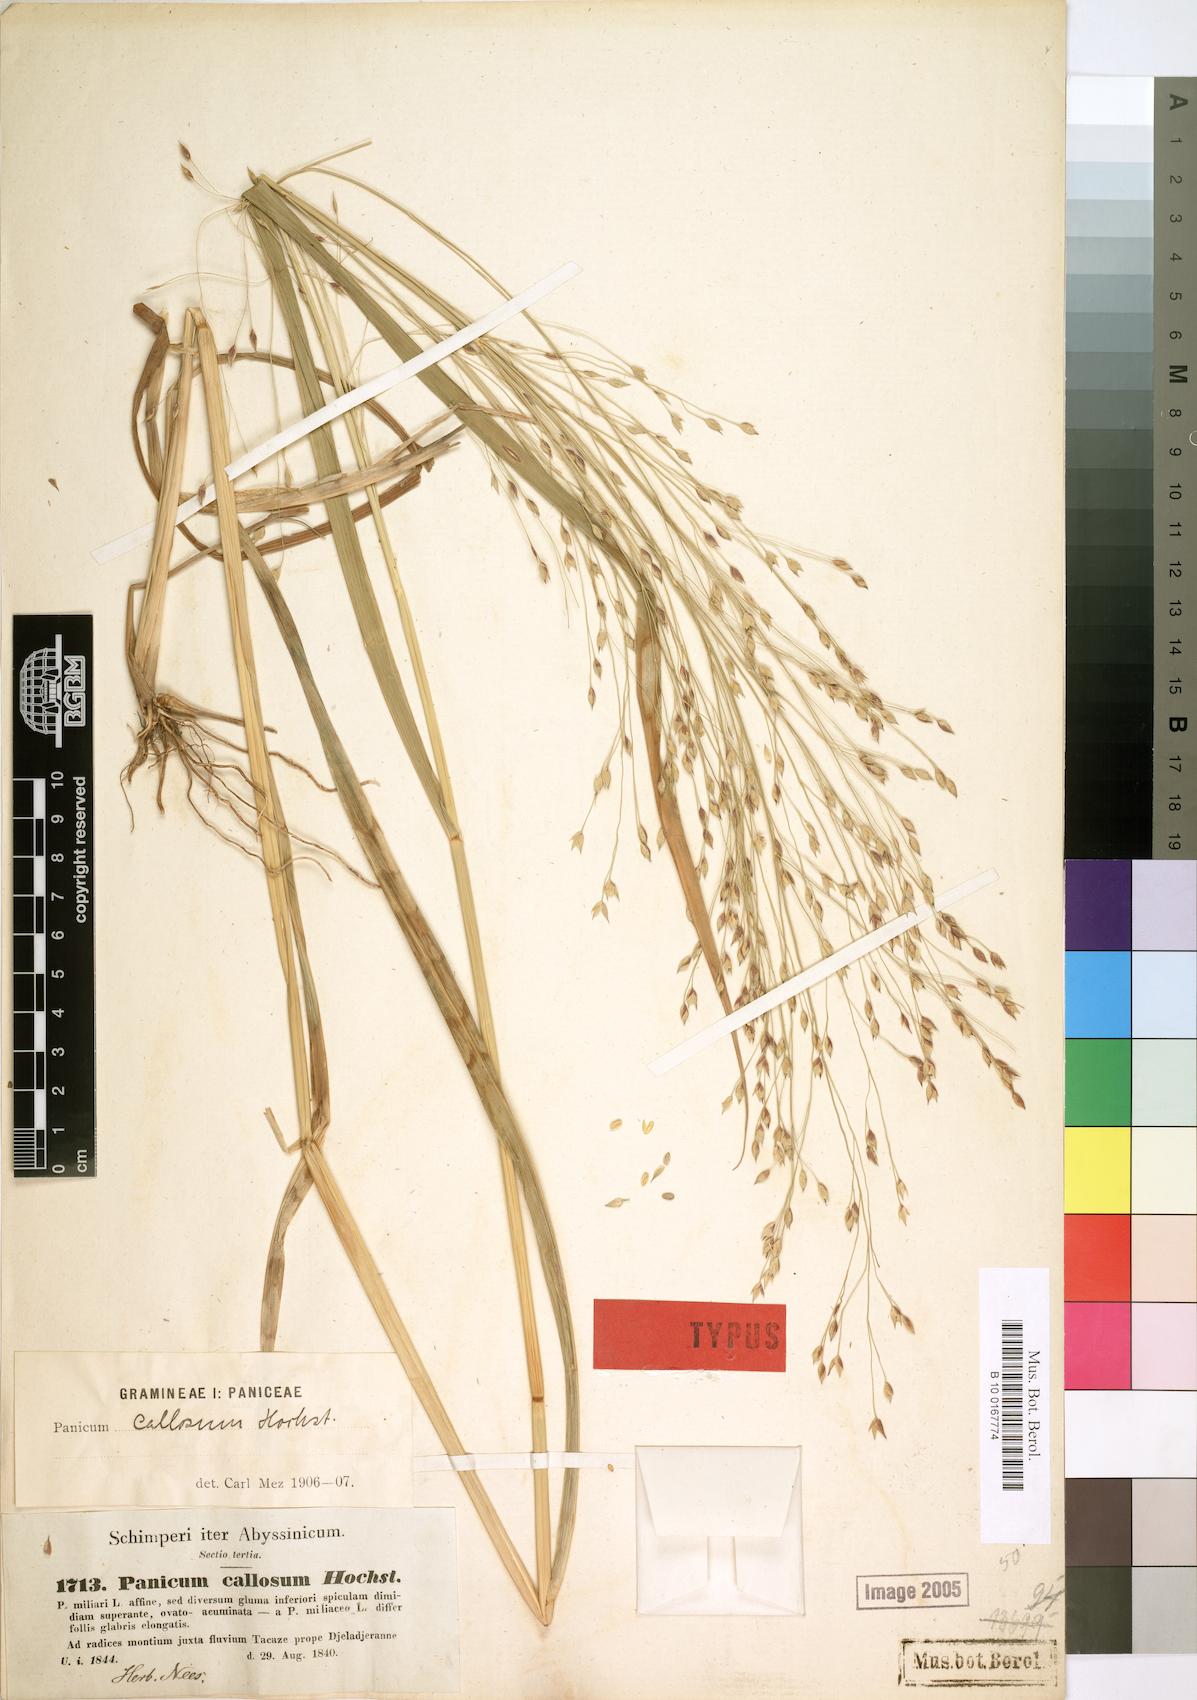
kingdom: Plantae
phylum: Tracheophyta
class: Liliopsida
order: Poales
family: Poaceae
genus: Panicum
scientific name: Panicum callosum
